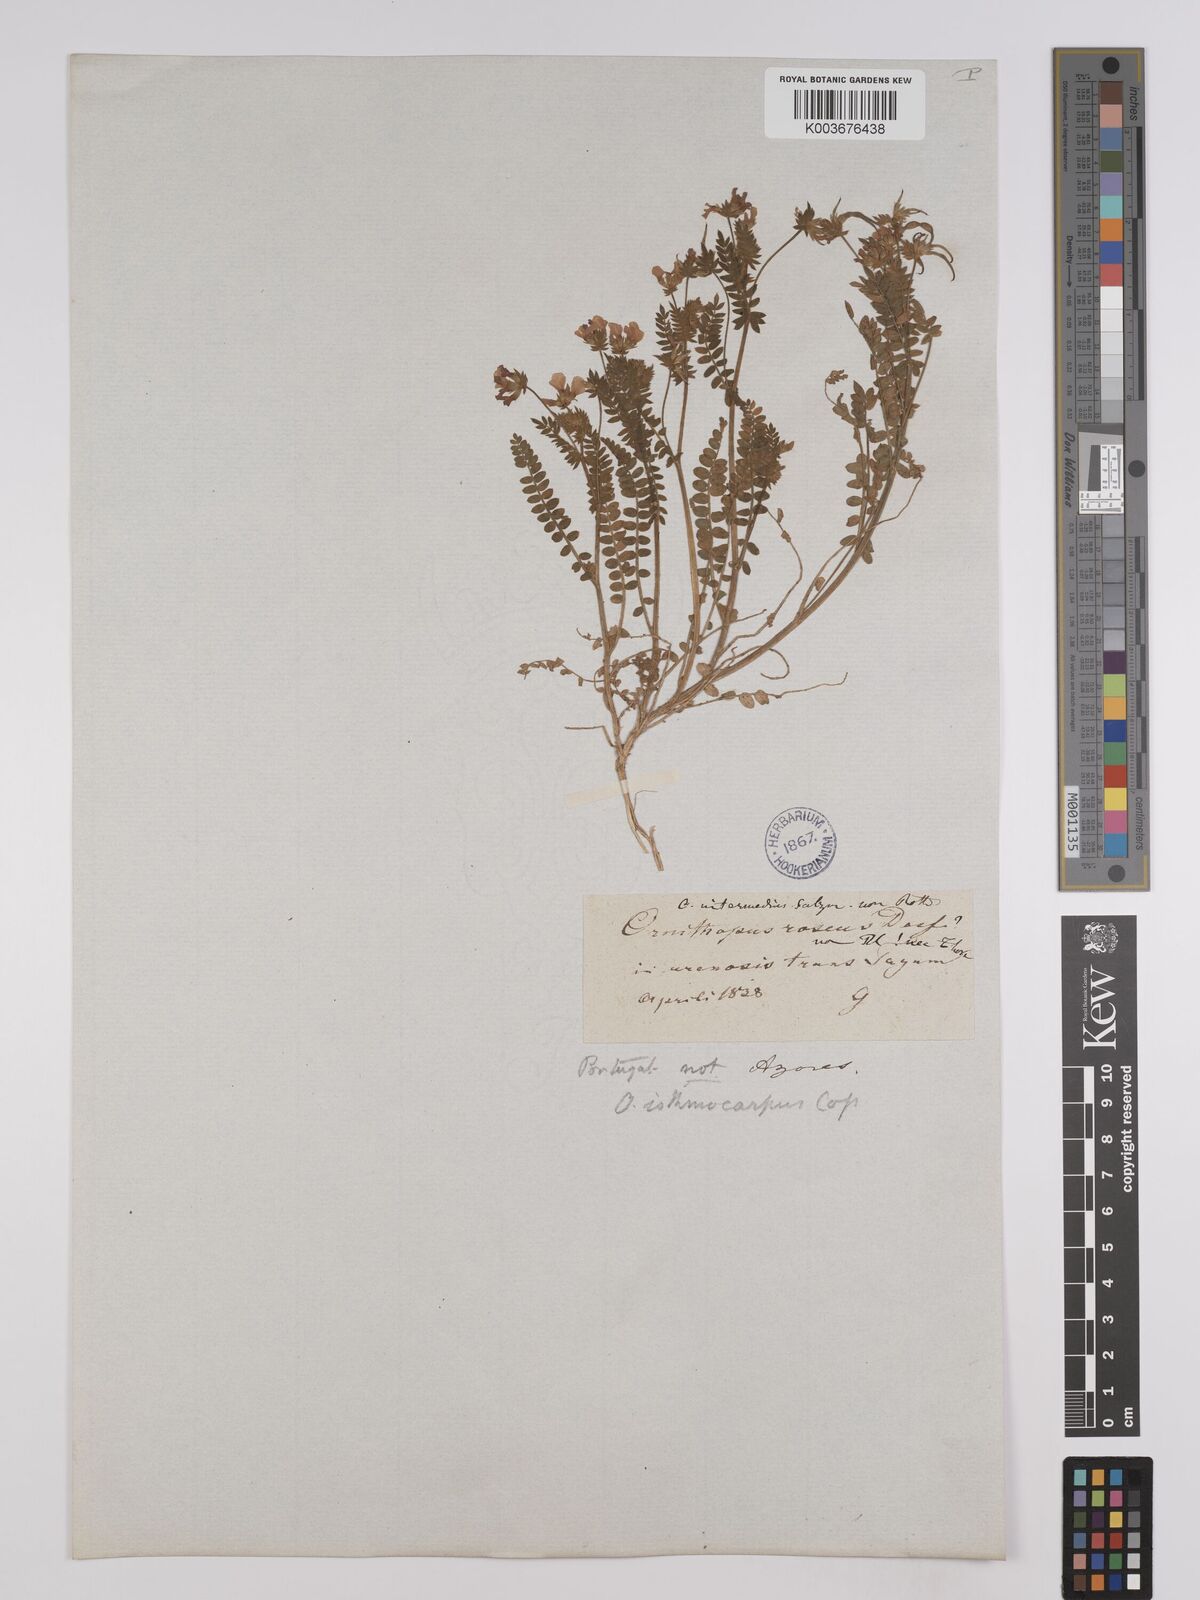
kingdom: Plantae
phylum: Tracheophyta
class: Magnoliopsida
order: Fabales
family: Fabaceae
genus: Ornithopus
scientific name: Ornithopus sativus
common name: Serradella
